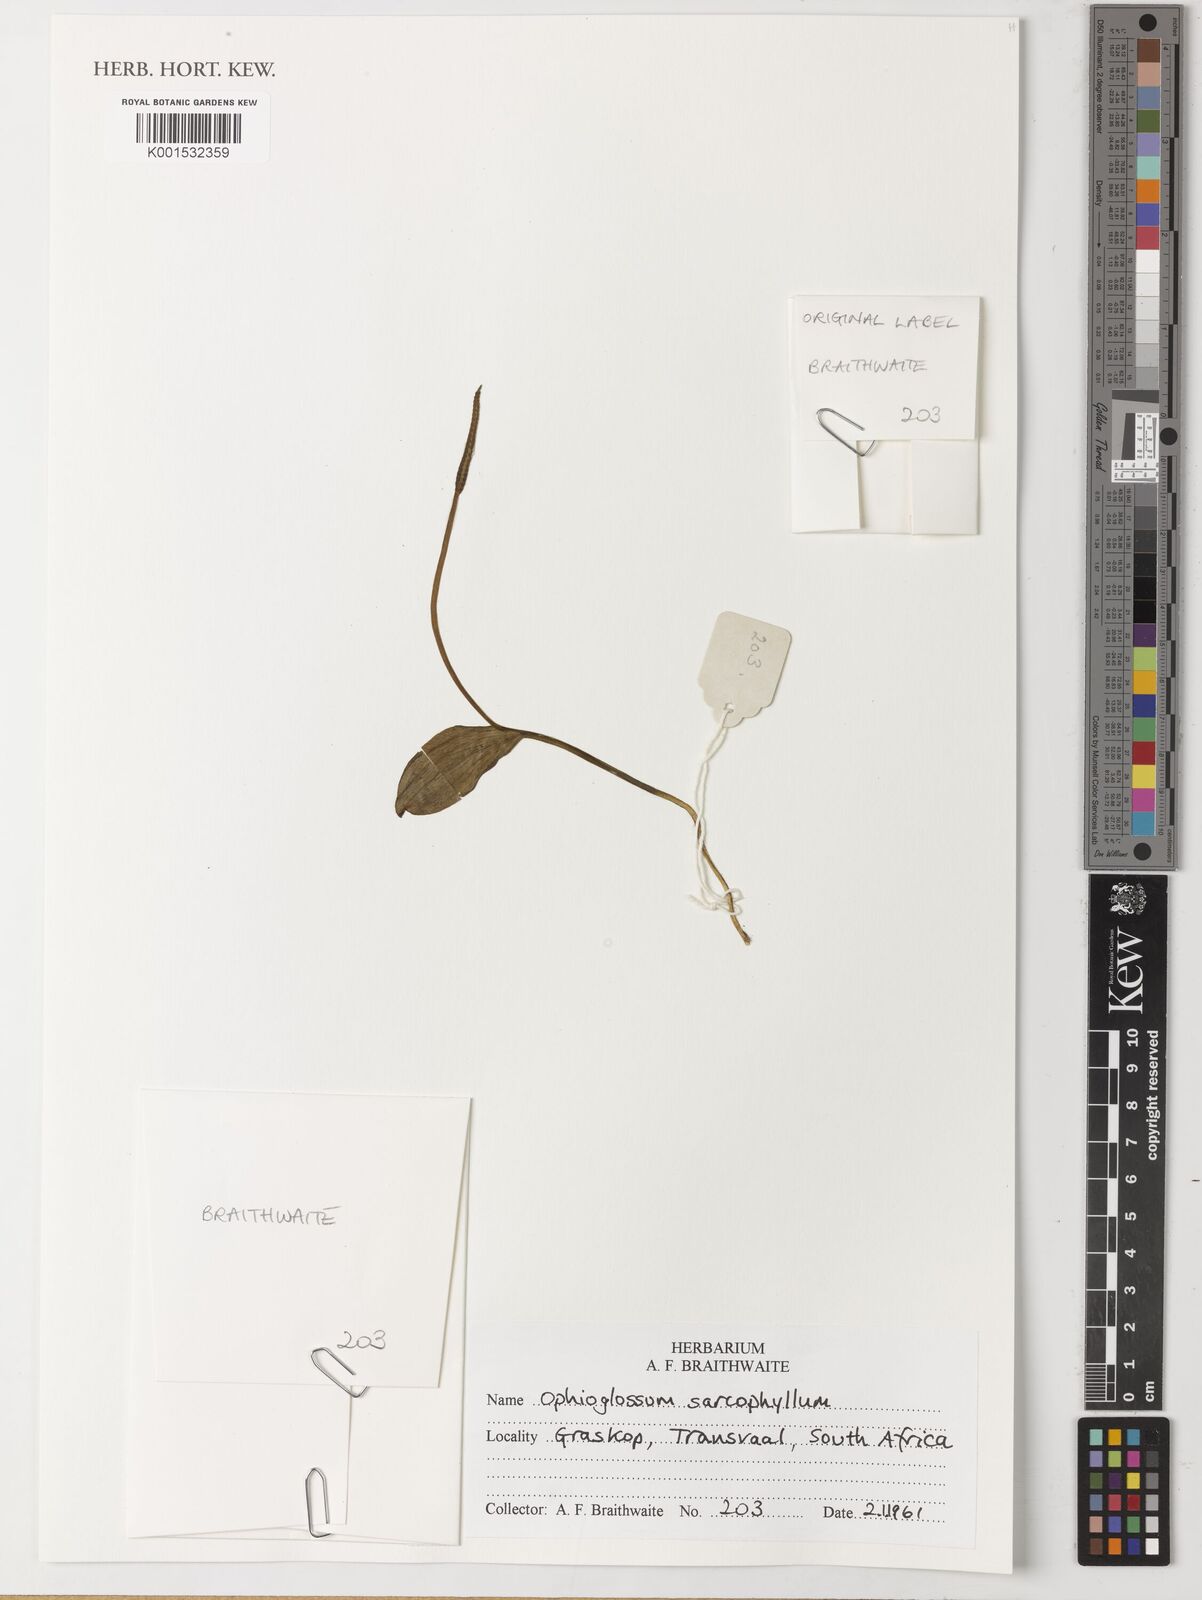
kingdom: Plantae
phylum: Tracheophyta
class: Polypodiopsida
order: Ophioglossales
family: Ophioglossaceae
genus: Ophioglossum
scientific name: Ophioglossum vulgatum
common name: Adder's-tongue
